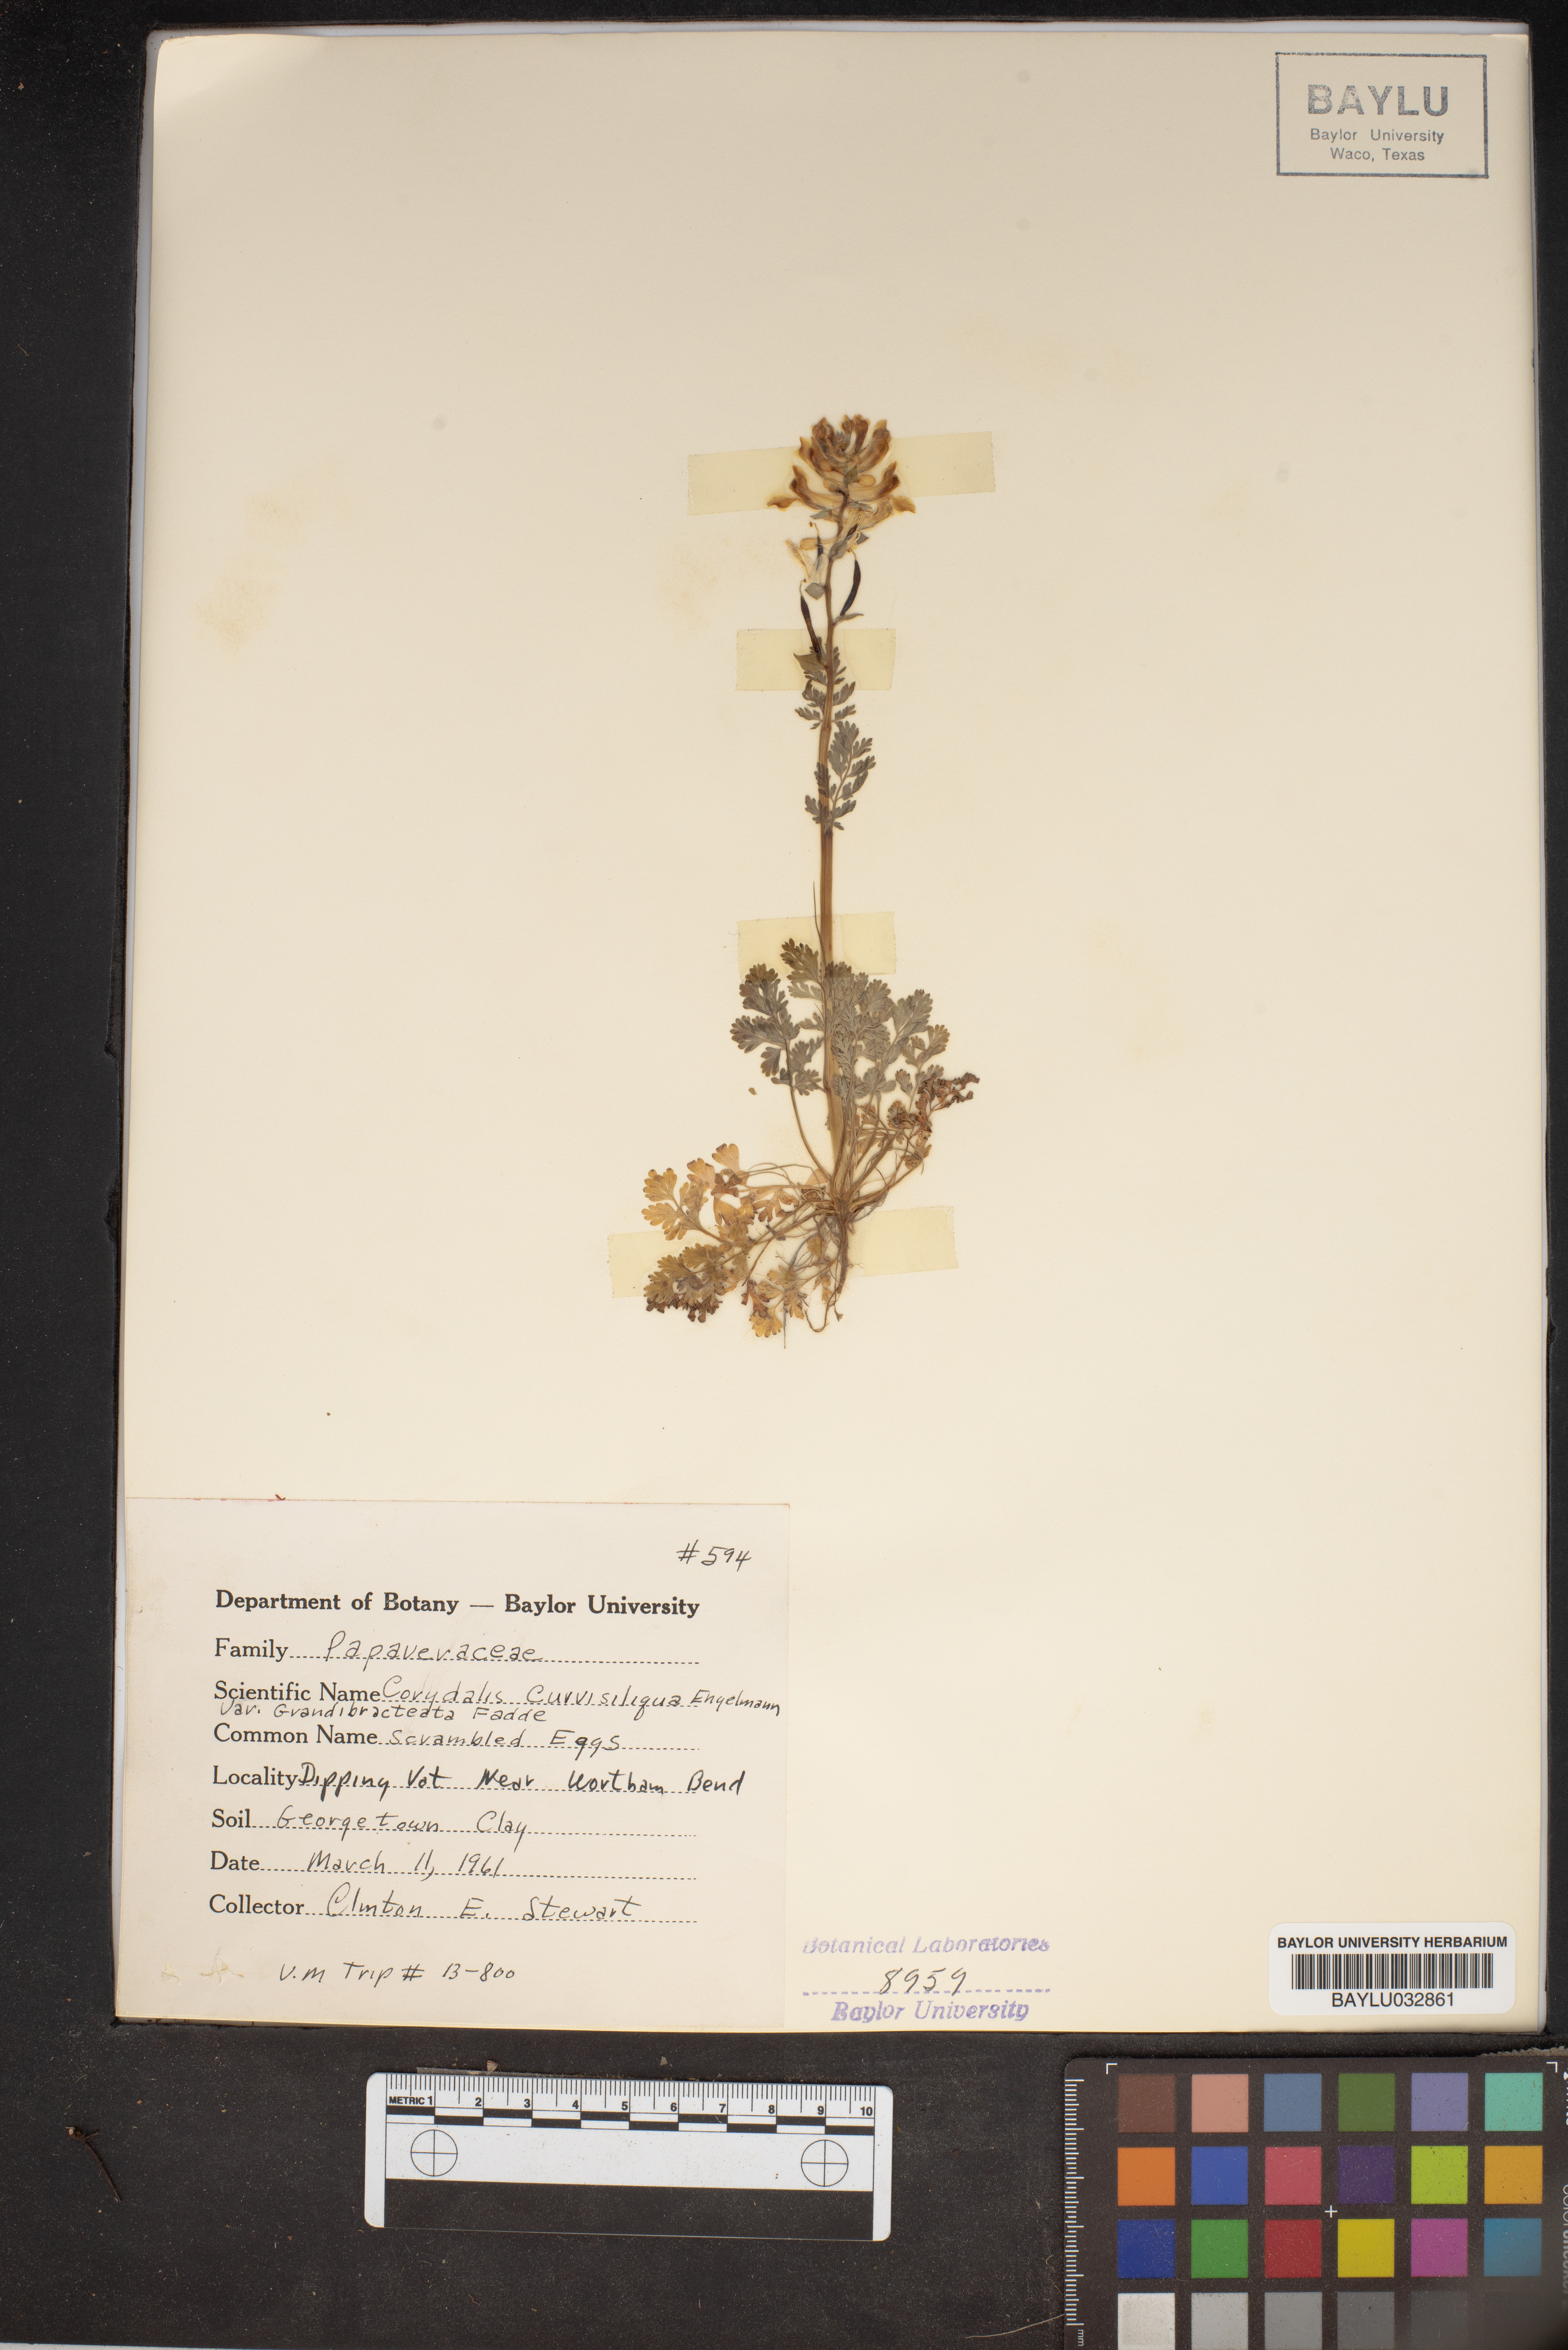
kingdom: Plantae
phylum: Tracheophyta
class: Magnoliopsida
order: Ranunculales
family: Papaveraceae
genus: Corydalis
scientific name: Corydalis curvisiliqua
